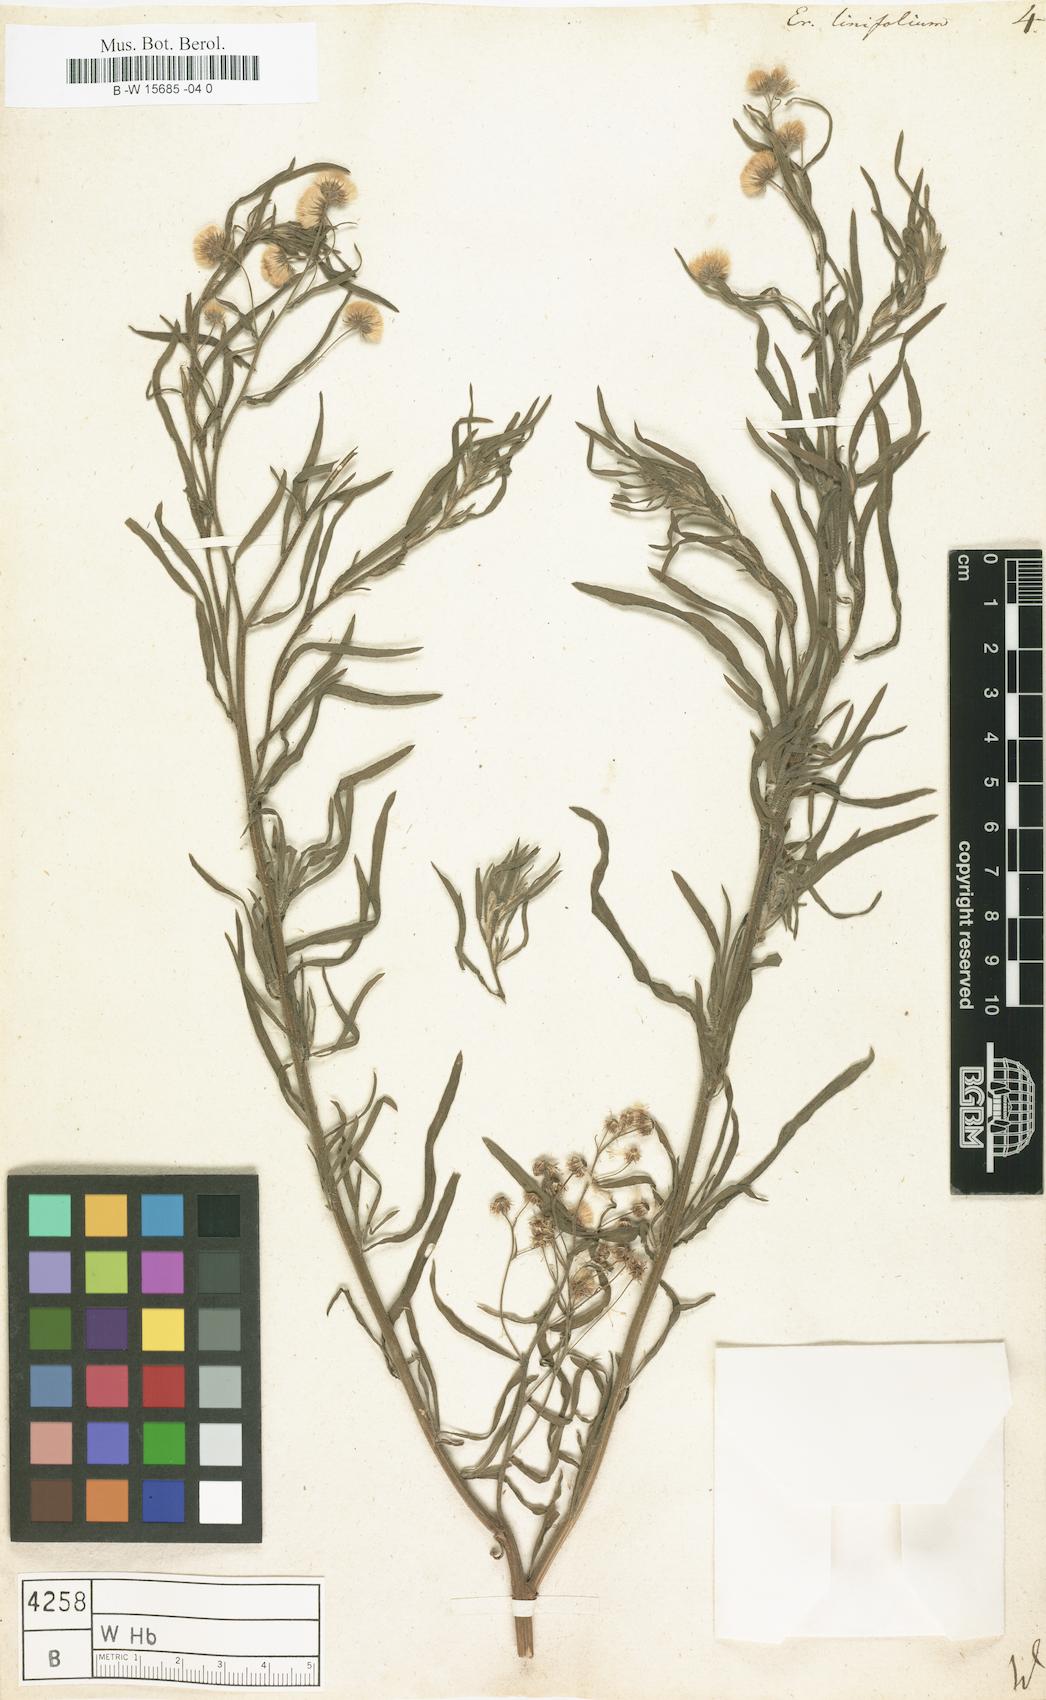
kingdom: Plantae
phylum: Tracheophyta
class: Magnoliopsida
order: Asterales
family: Asteraceae
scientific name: Asteraceae
